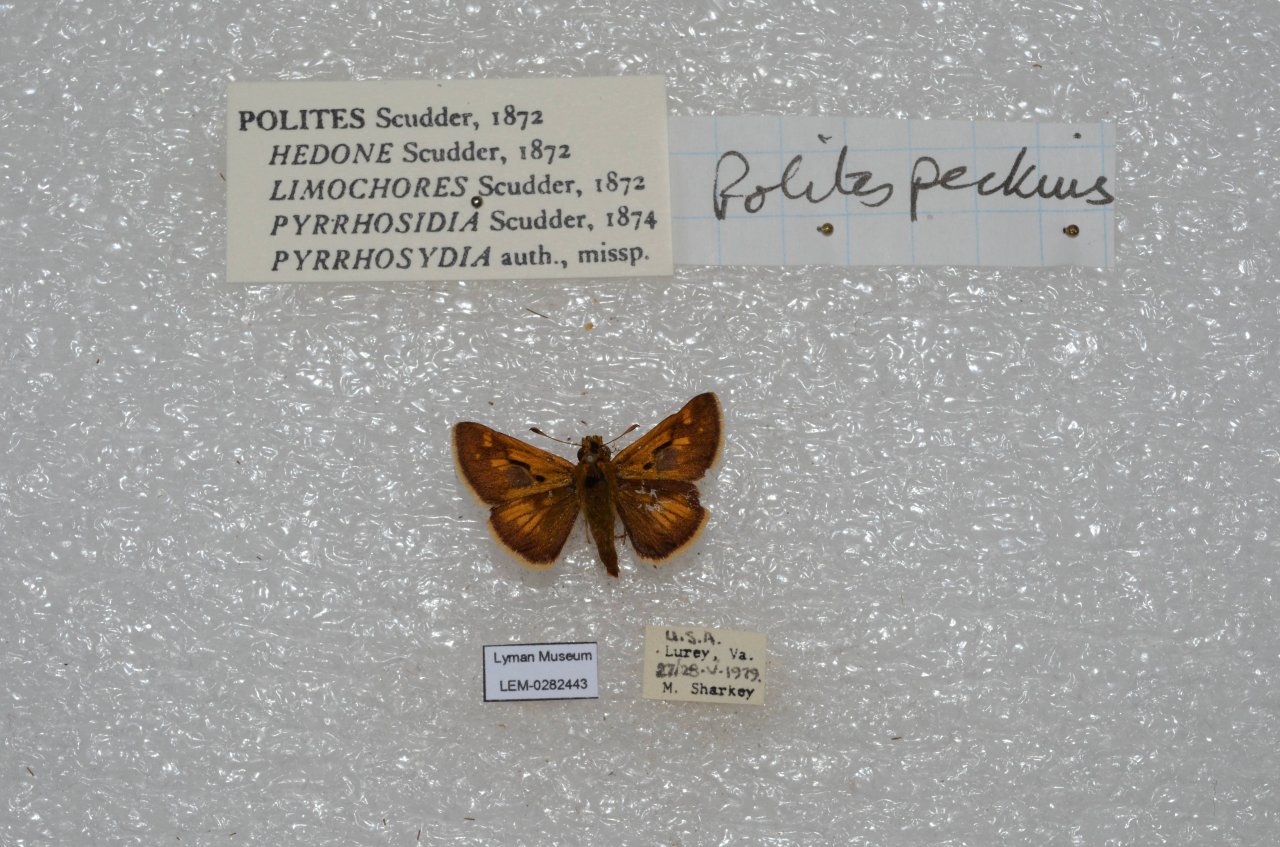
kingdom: Animalia
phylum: Arthropoda
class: Insecta
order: Lepidoptera
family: Hesperiidae
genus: Polites
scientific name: Polites coras
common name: Peck's Skipper
